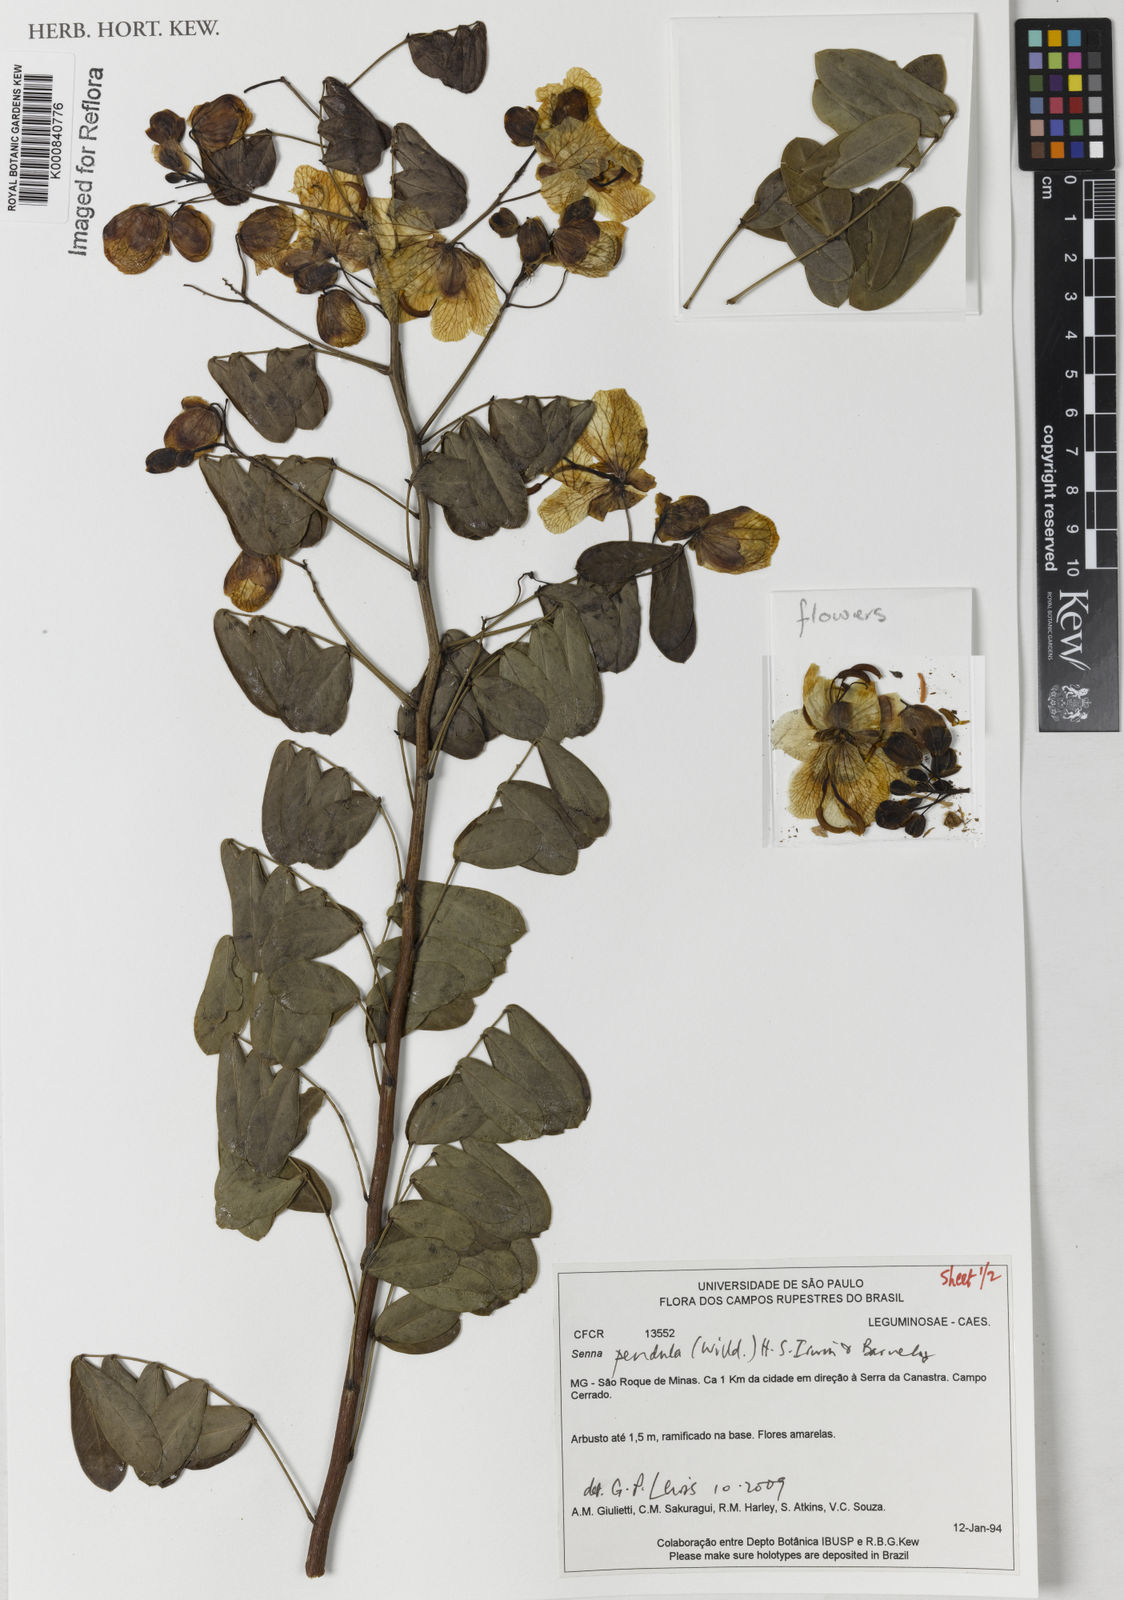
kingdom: Plantae
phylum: Tracheophyta
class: Magnoliopsida
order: Fabales
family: Fabaceae
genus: Senna
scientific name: Senna pendula
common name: Easter cassia
